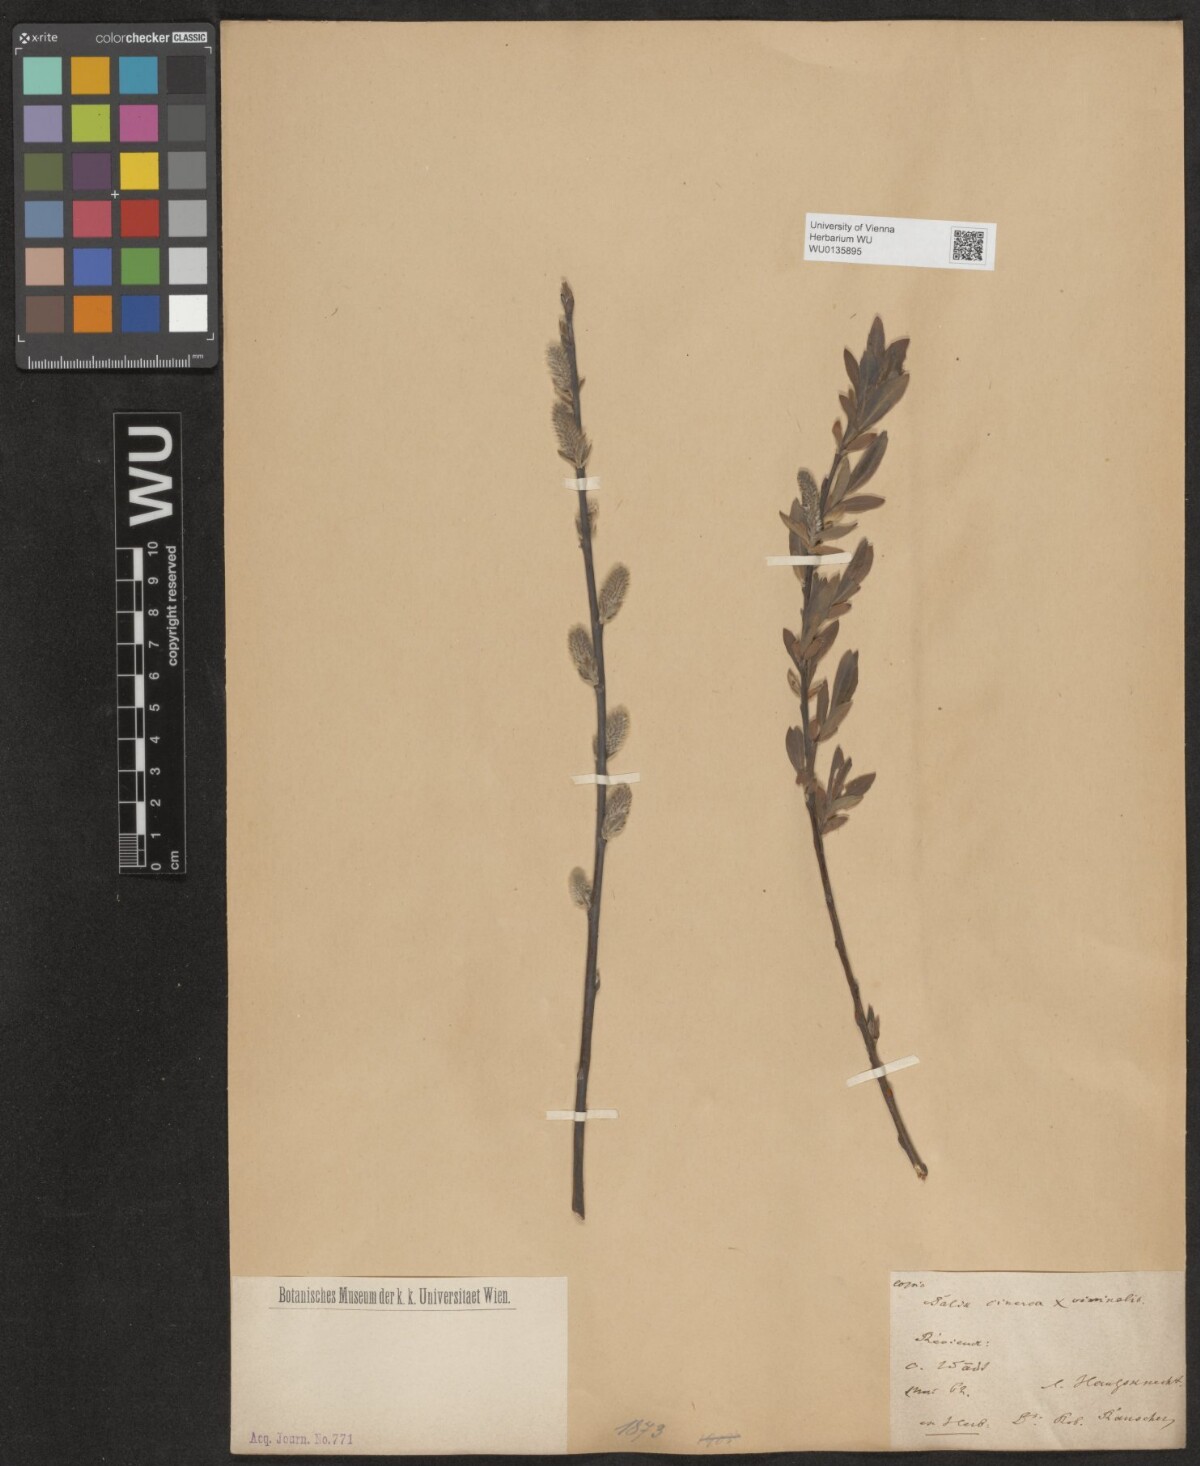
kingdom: Plantae
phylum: Tracheophyta
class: Magnoliopsida
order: Malpighiales
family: Salicaceae
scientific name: Salicaceae
